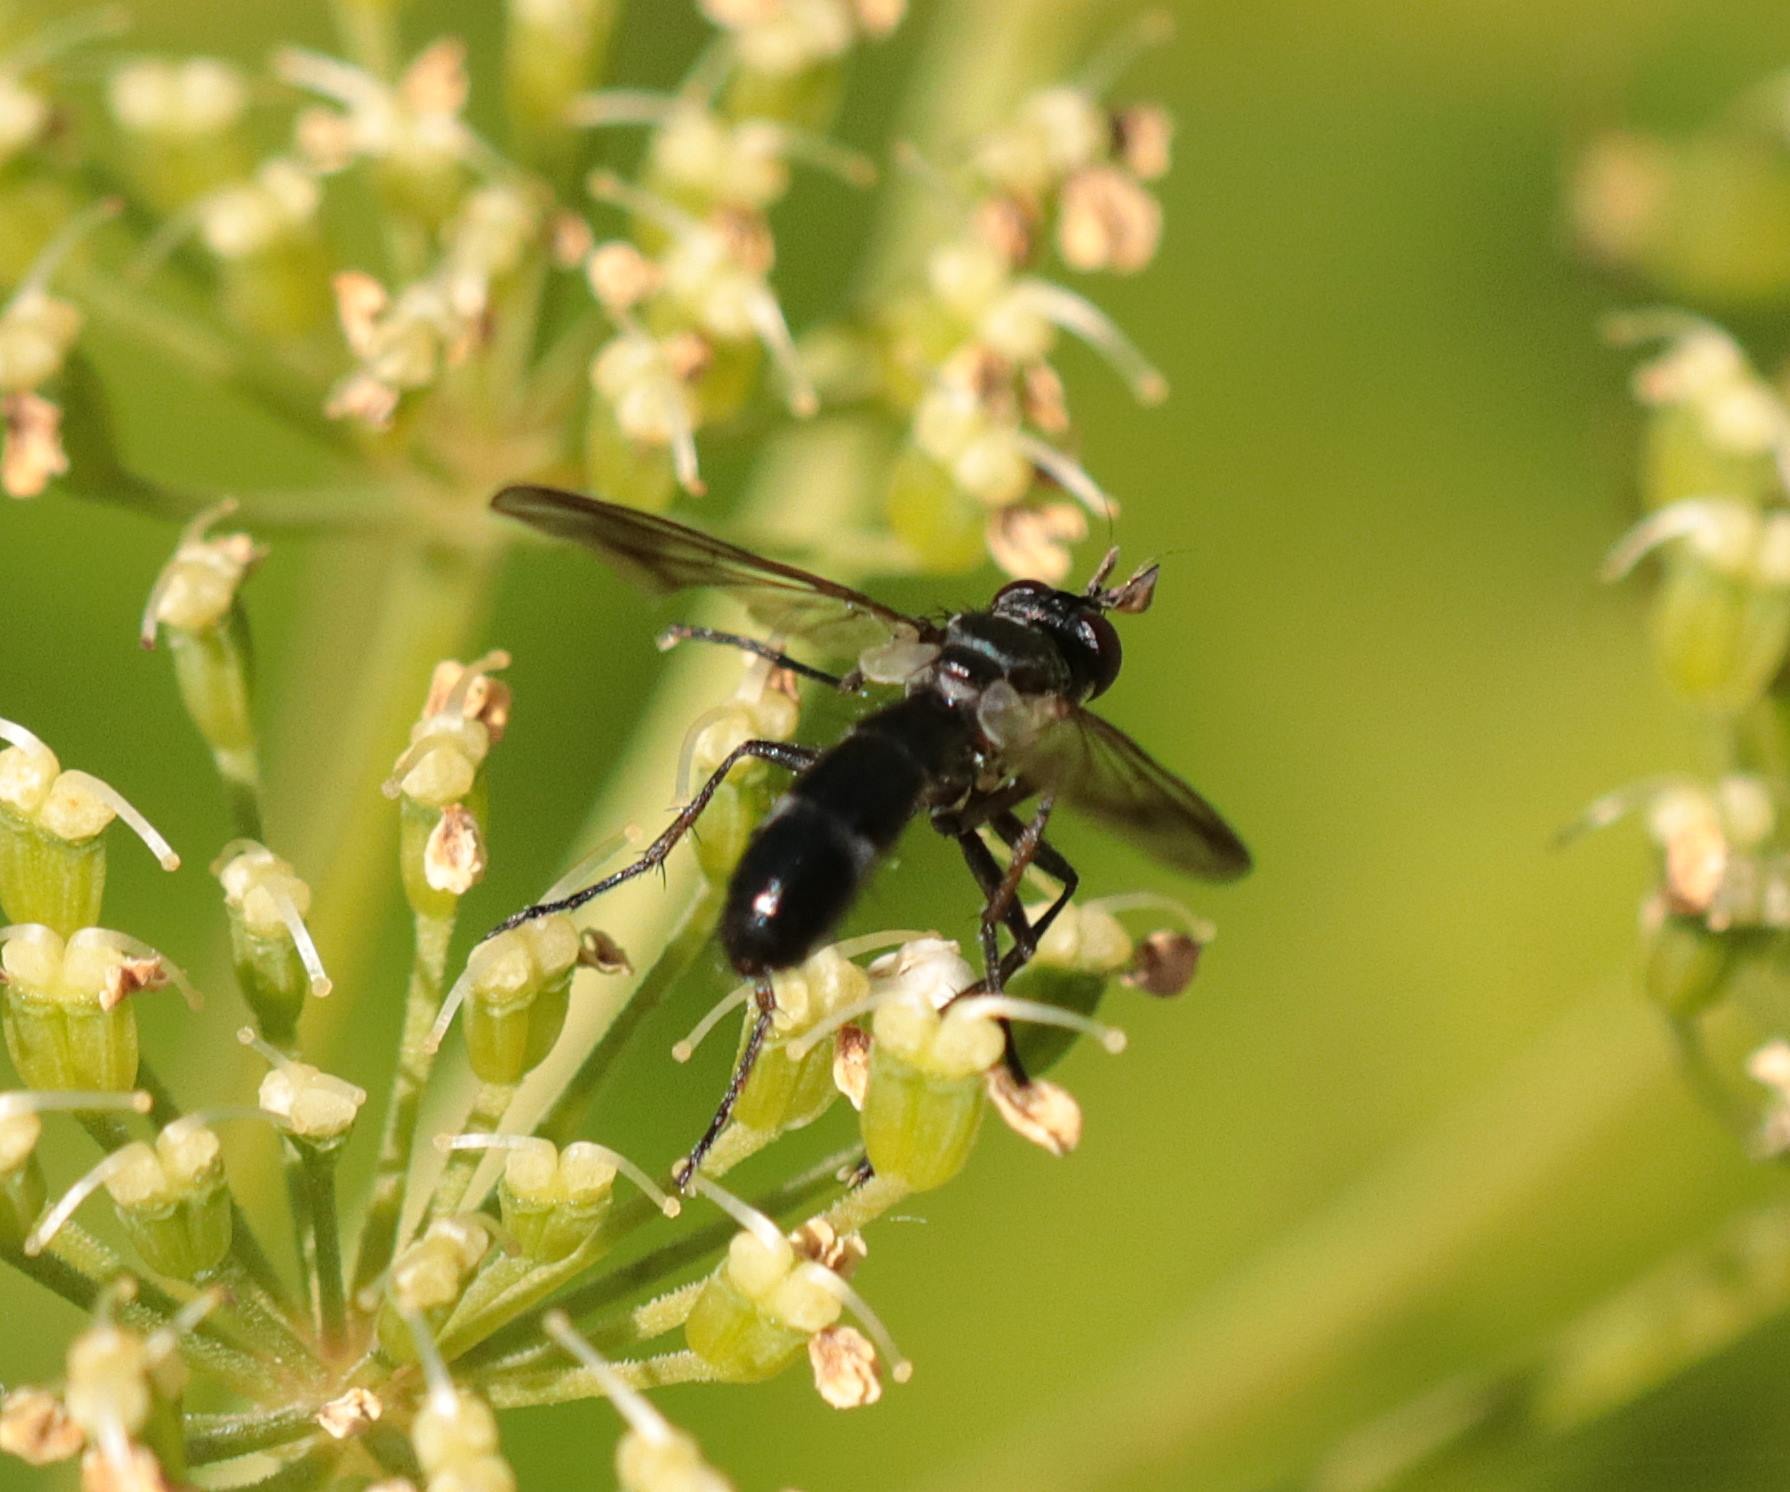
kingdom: Animalia
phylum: Arthropoda
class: Insecta
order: Diptera
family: Tachinidae
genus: Lophosia
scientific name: Lophosia fasciata
